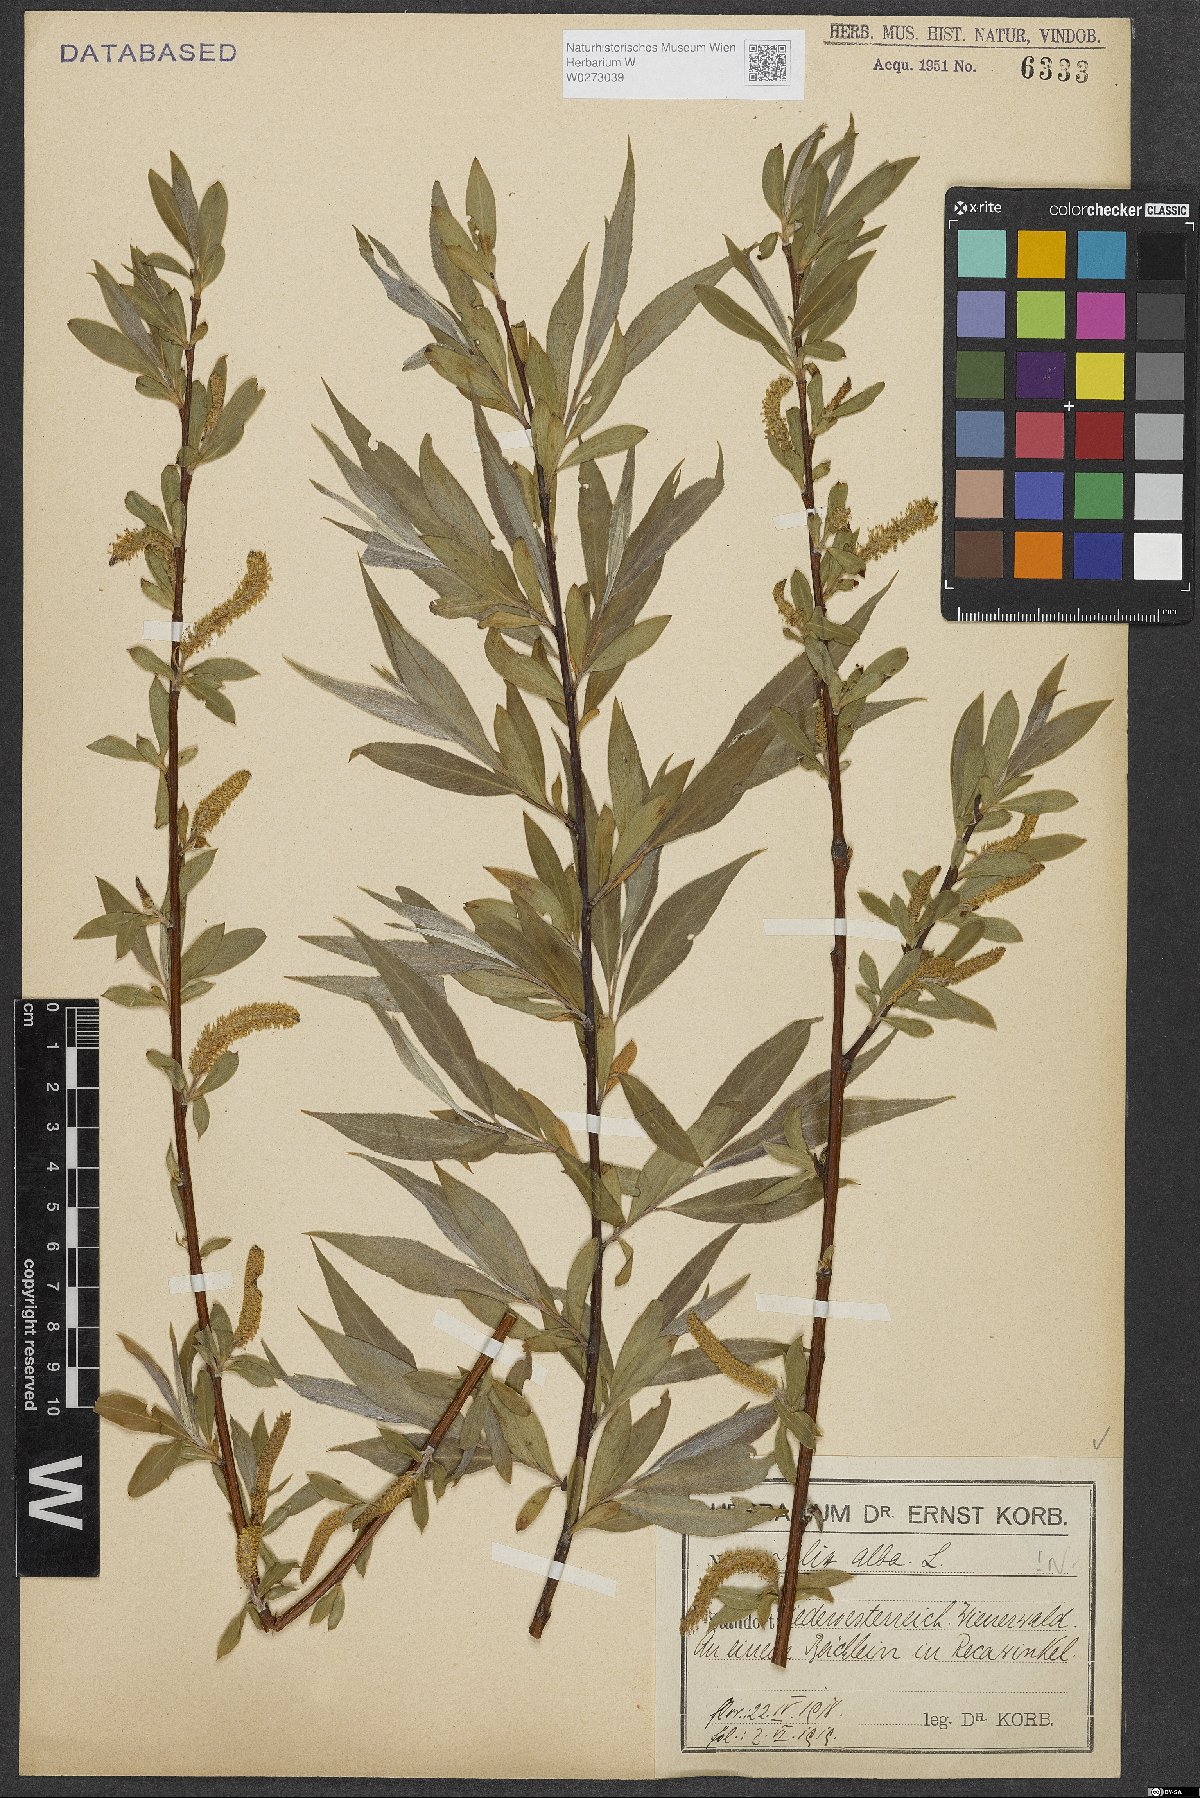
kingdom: Plantae
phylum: Tracheophyta
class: Magnoliopsida
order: Malpighiales
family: Salicaceae
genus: Salix
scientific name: Salix alba
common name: White willow
